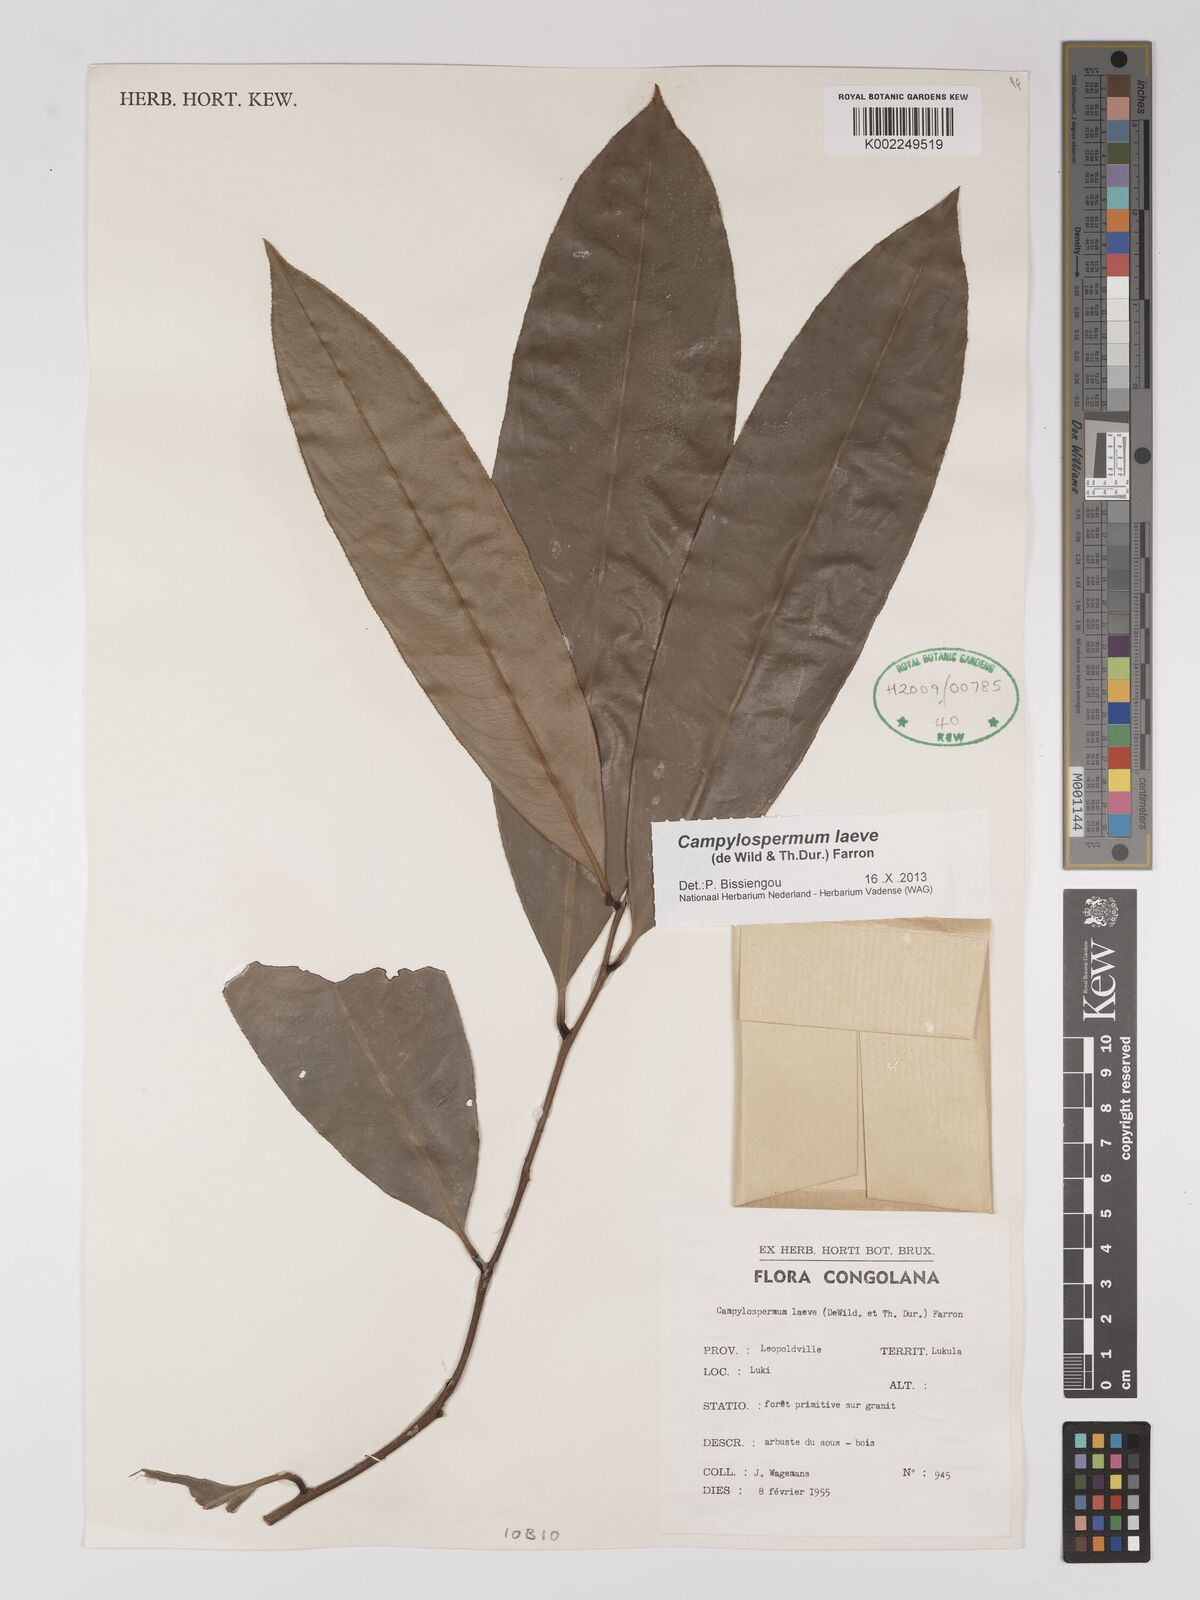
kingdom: Plantae
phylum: Tracheophyta
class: Magnoliopsida
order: Malpighiales
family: Ochnaceae
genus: Campylospermum
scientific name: Campylospermum laeve
